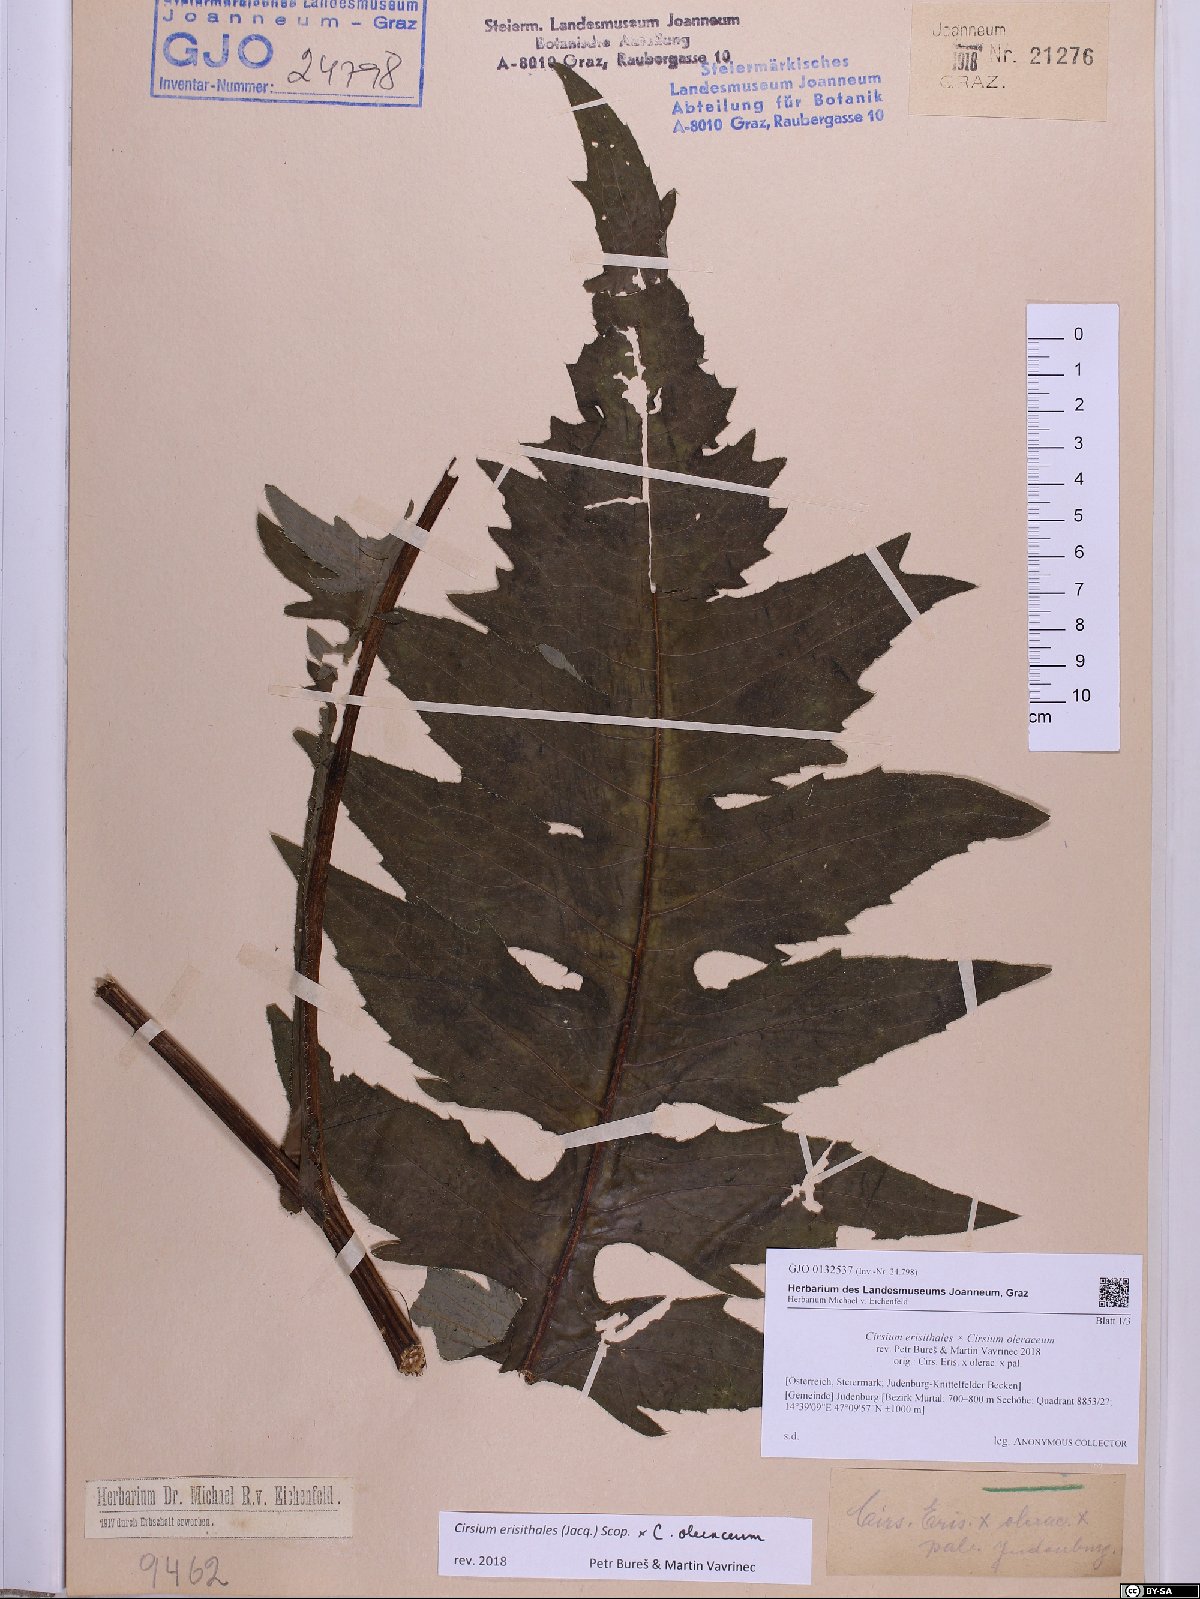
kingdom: Plantae
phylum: Tracheophyta
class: Magnoliopsida
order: Asterales
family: Asteraceae
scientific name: Asteraceae
